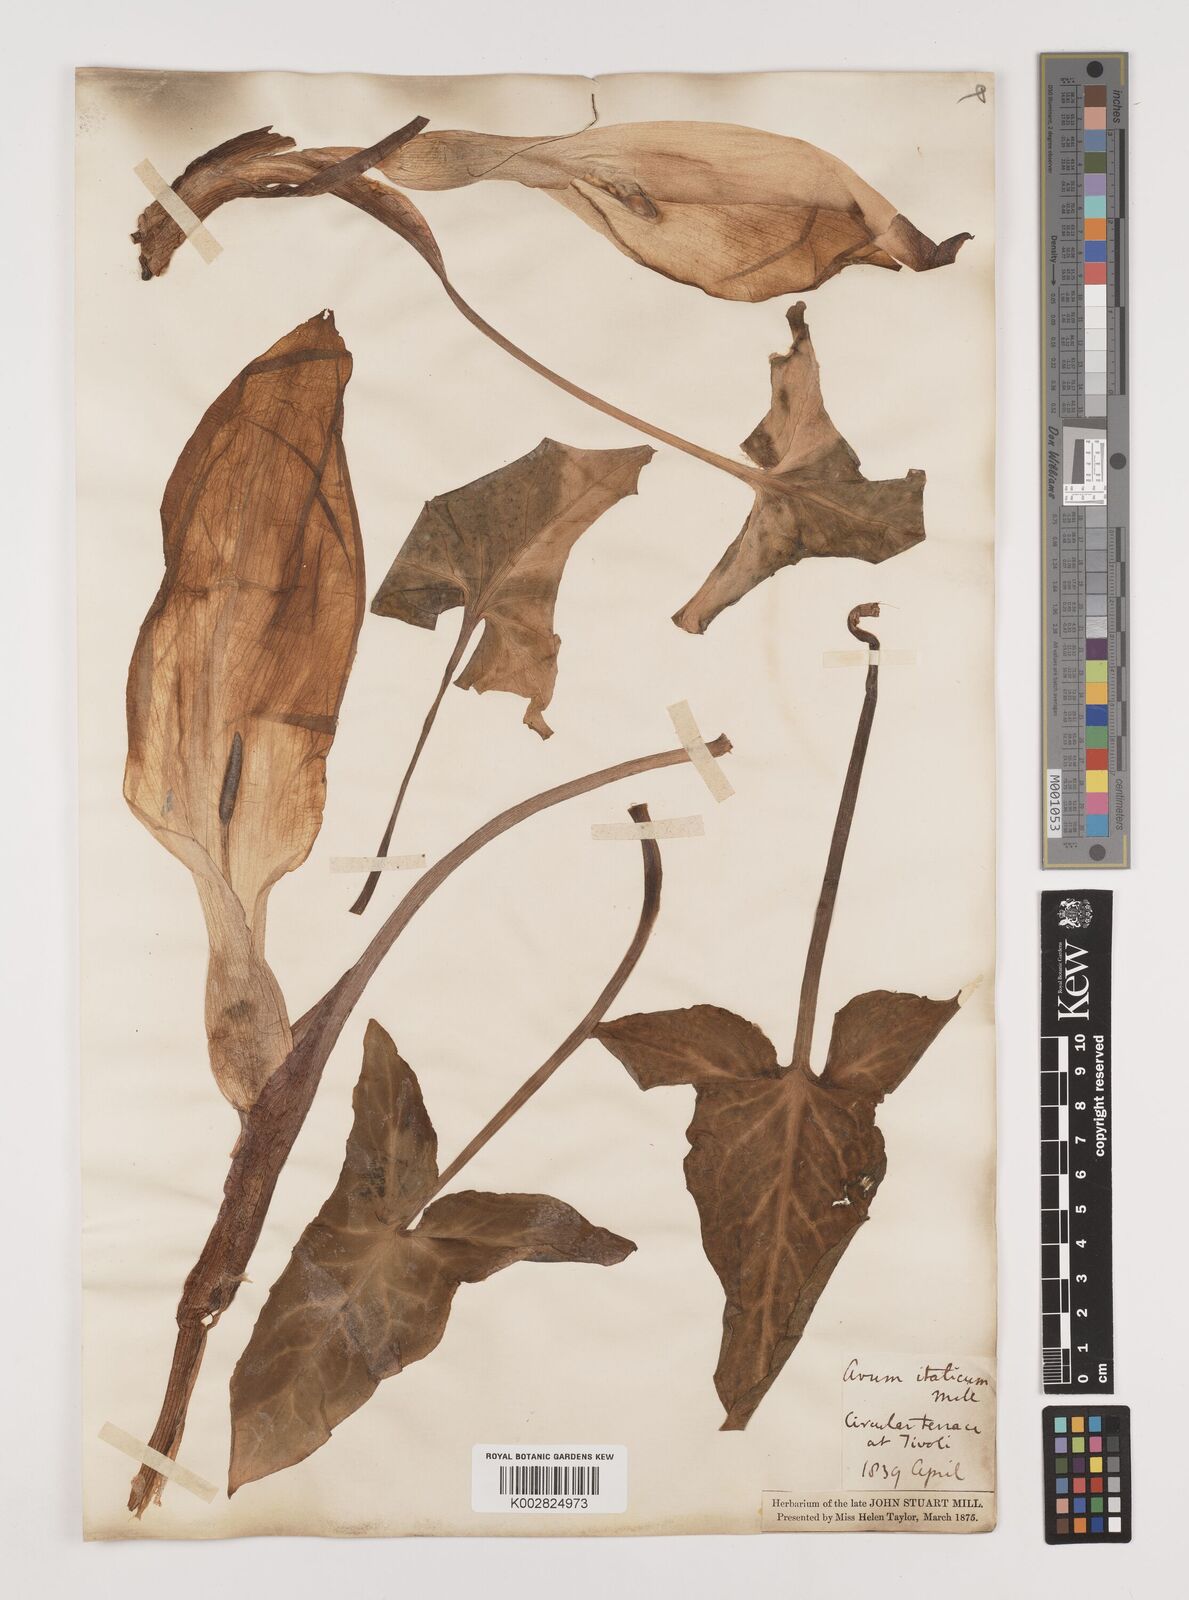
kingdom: Plantae
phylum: Tracheophyta
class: Liliopsida
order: Alismatales
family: Araceae
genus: Arum
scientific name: Arum italicum
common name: Italian lords-and-ladies
